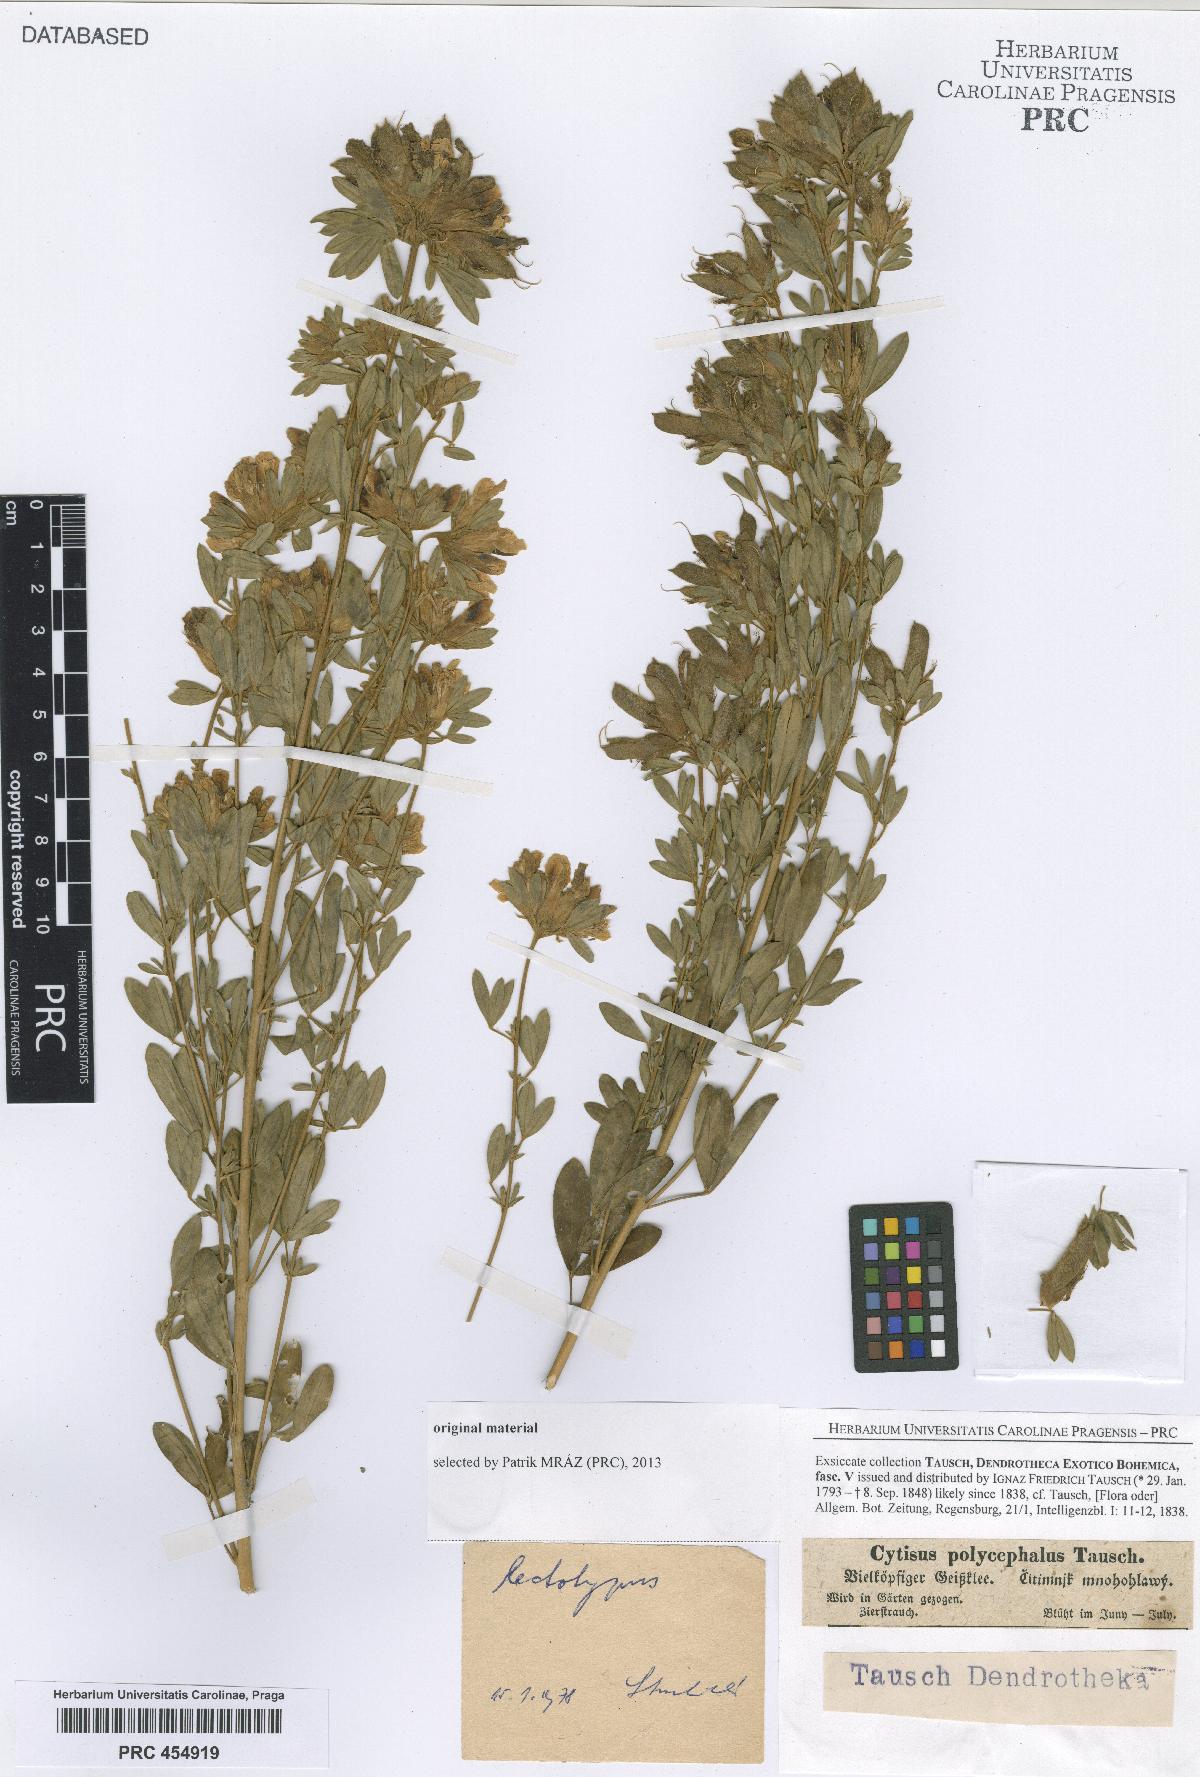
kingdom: Plantae
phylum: Tracheophyta
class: Magnoliopsida
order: Fabales
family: Fabaceae
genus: Chamaecytisus
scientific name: Chamaecytisus albus
